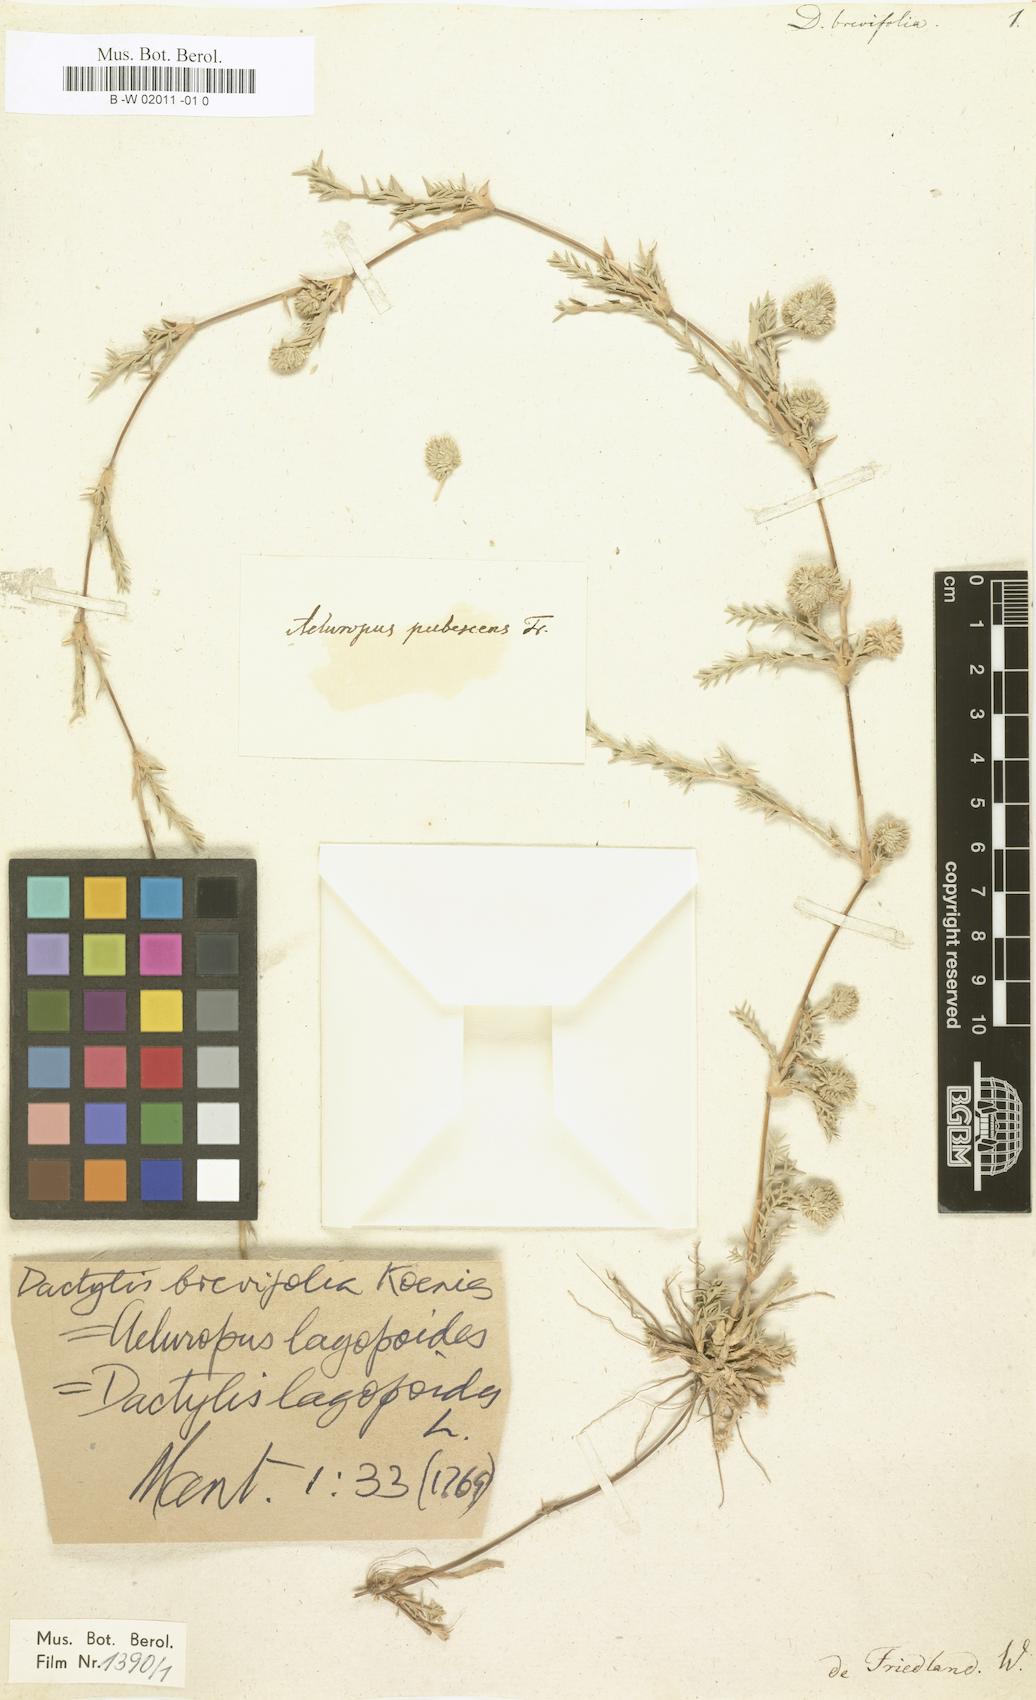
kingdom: Plantae
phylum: Tracheophyta
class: Liliopsida
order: Poales
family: Poaceae
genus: Aeluropus
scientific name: Aeluropus lagopoides
